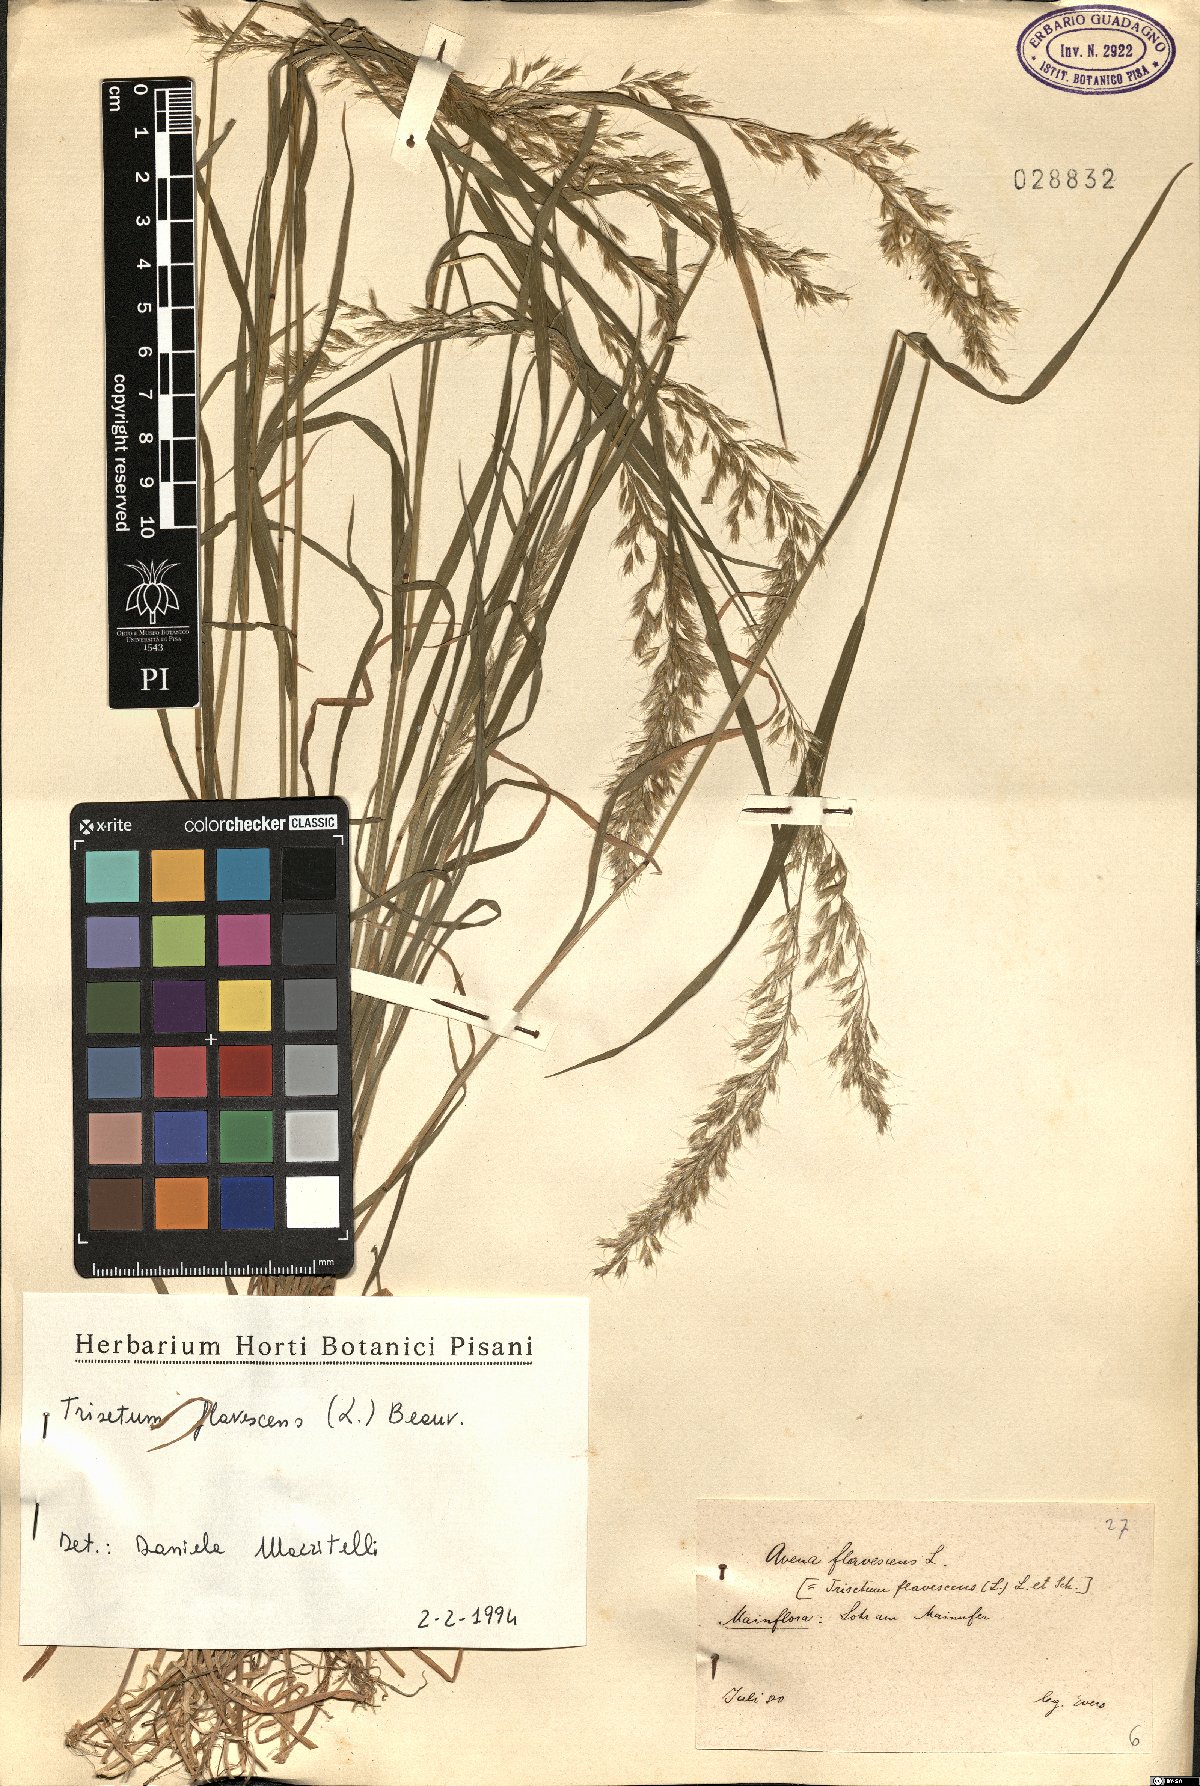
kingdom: Plantae
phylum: Tracheophyta
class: Liliopsida
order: Poales
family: Poaceae
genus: Trisetum
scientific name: Trisetum flavescens
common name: Yellow oat-grass
